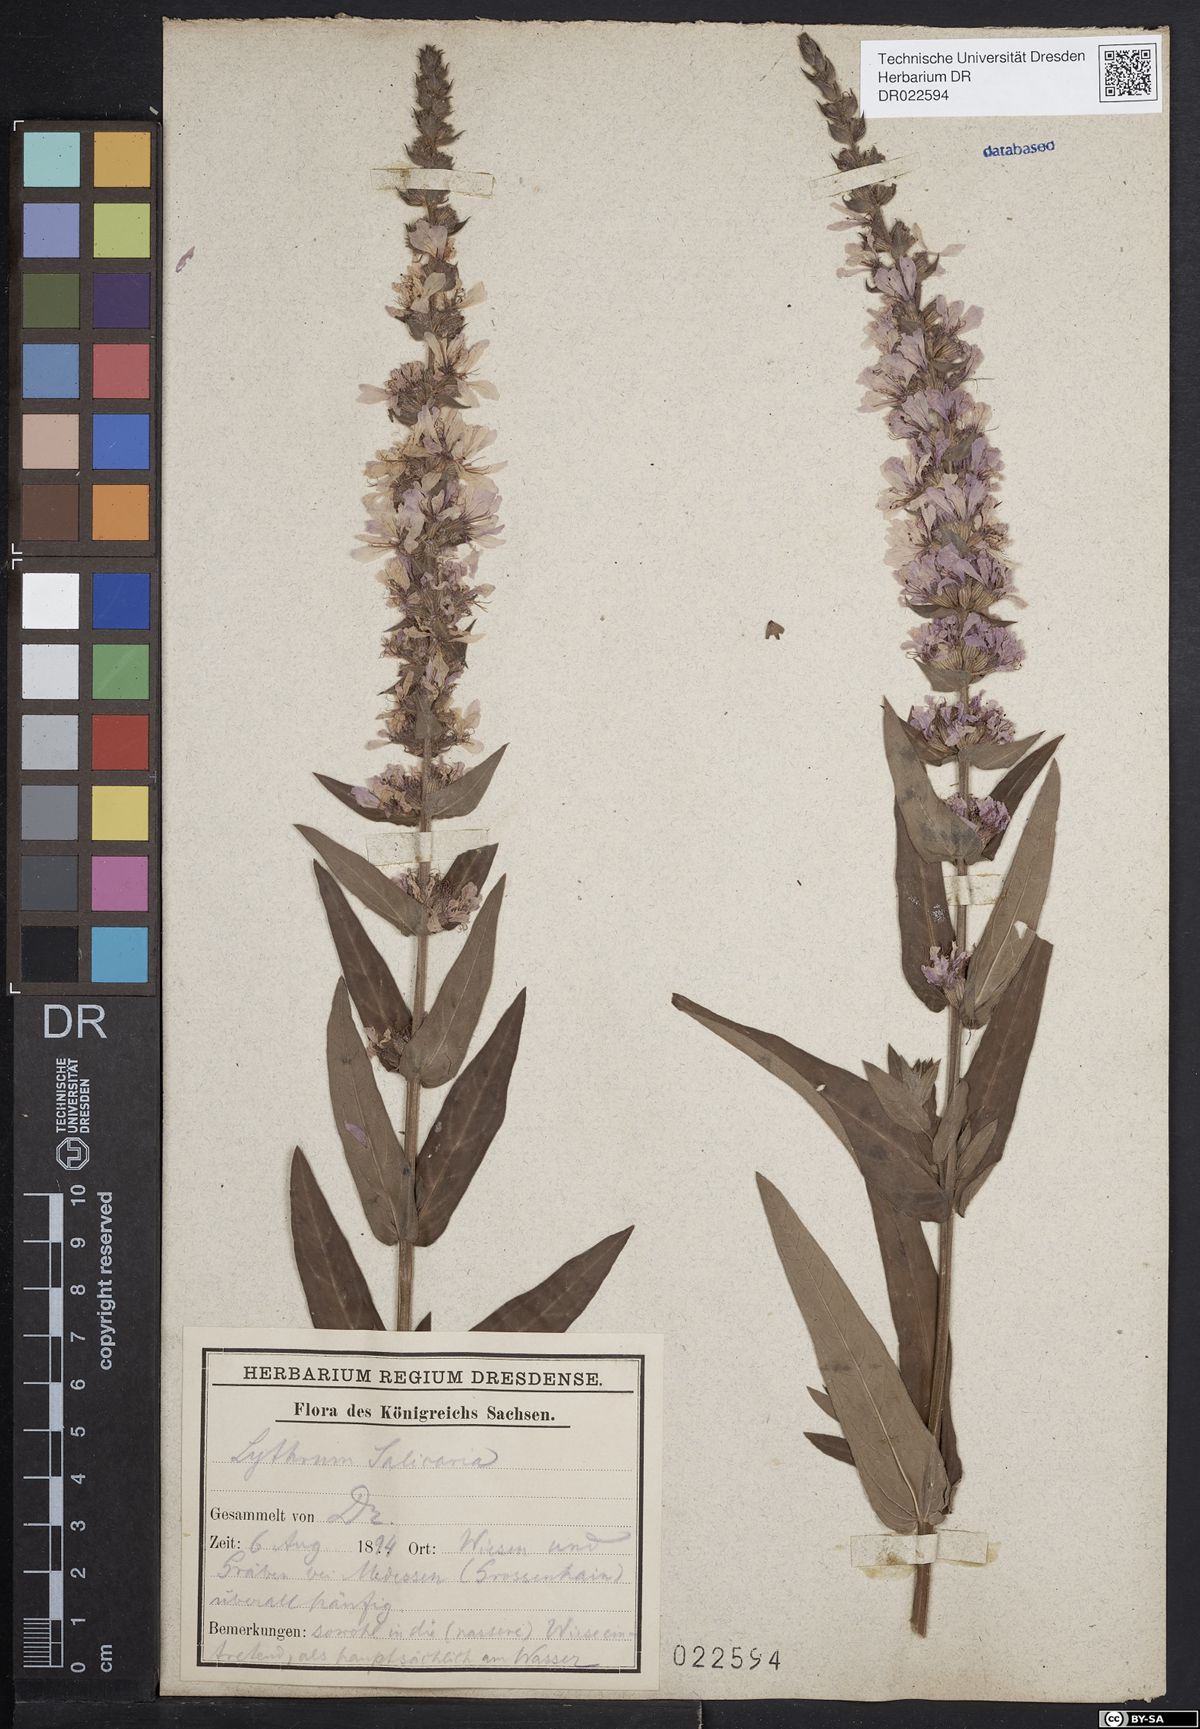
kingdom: Plantae
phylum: Tracheophyta
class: Magnoliopsida
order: Myrtales
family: Lythraceae
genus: Lythrum
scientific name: Lythrum salicaria
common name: Purple loosestrife
